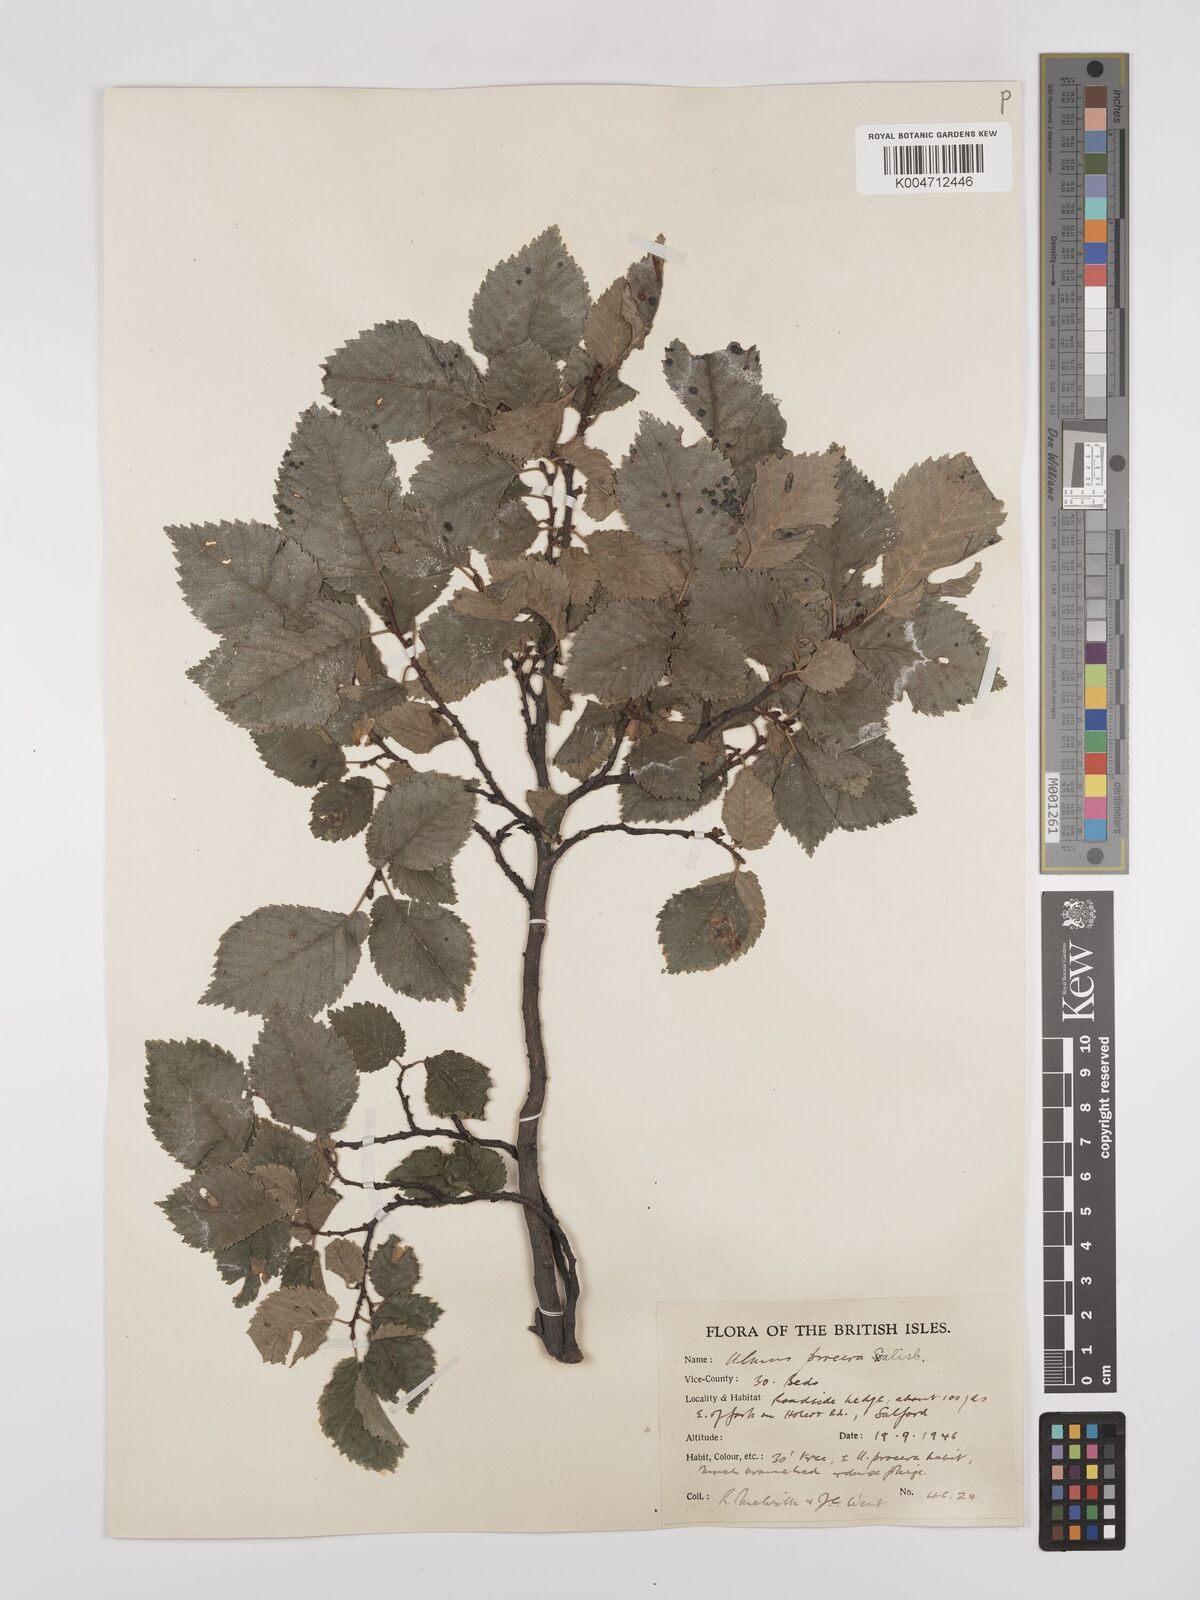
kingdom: Plantae
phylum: Tracheophyta
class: Magnoliopsida
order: Rosales
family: Ulmaceae
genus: Ulmus
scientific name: Ulmus minor
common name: Small-leaved elm
